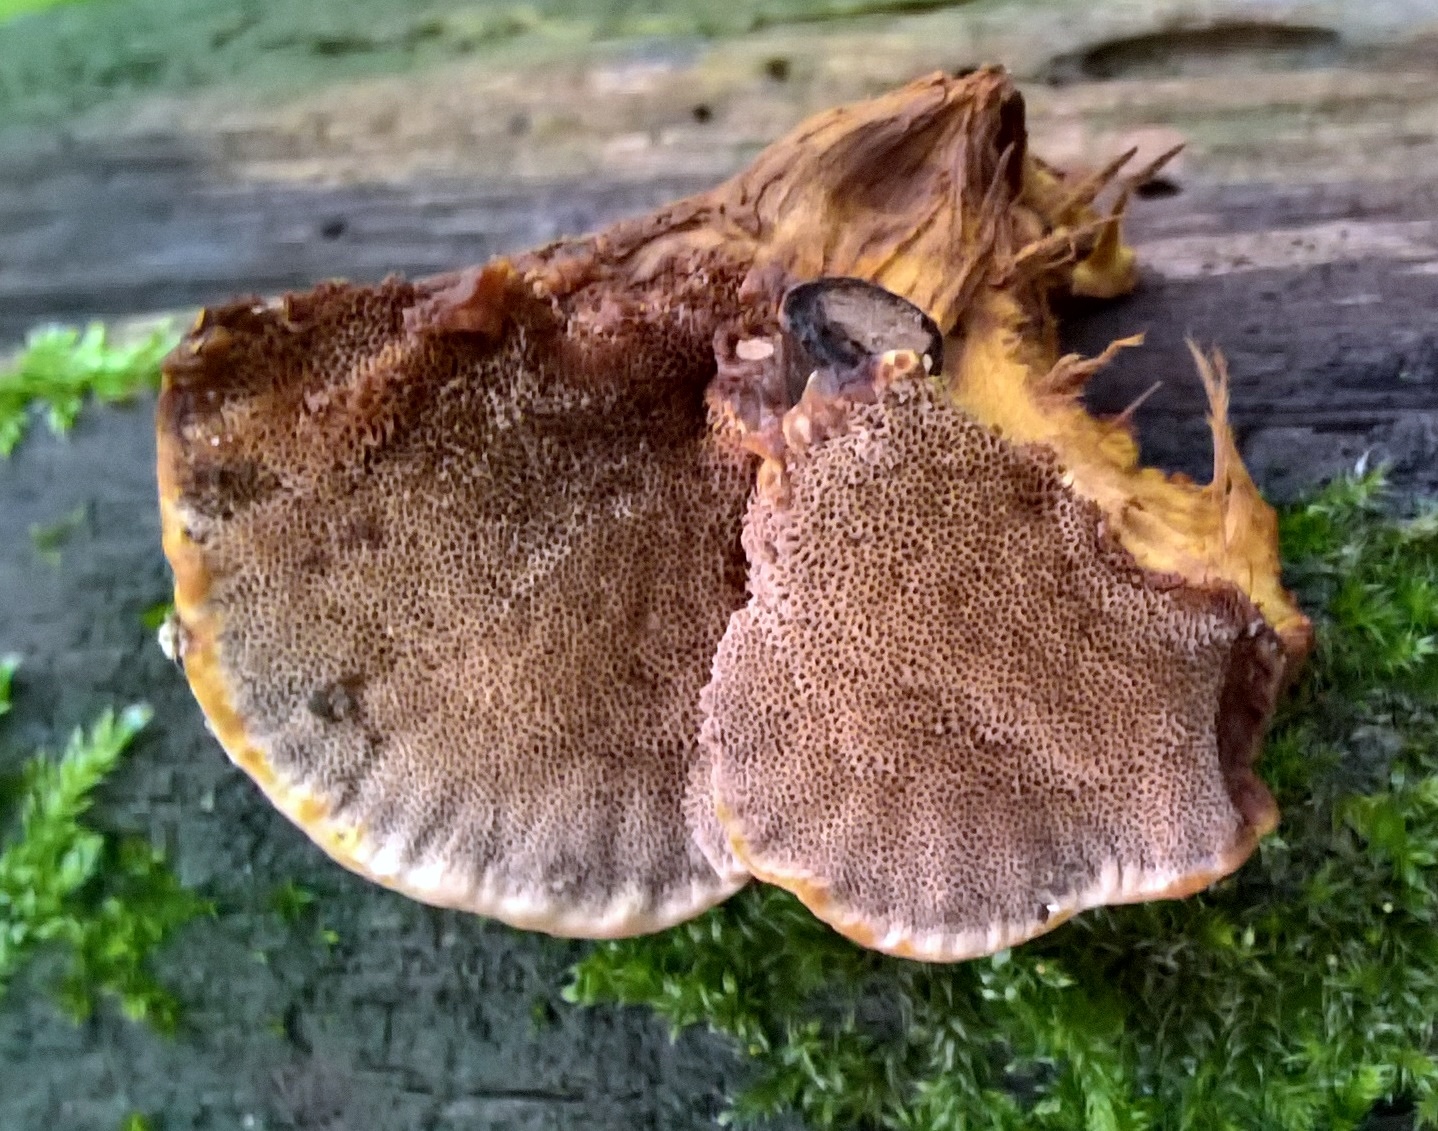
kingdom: Fungi
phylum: Basidiomycota
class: Agaricomycetes
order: Hymenochaetales
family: Hymenochaetaceae
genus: Xanthoporia
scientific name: Xanthoporia radiata
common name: elle-spejlporesvamp
